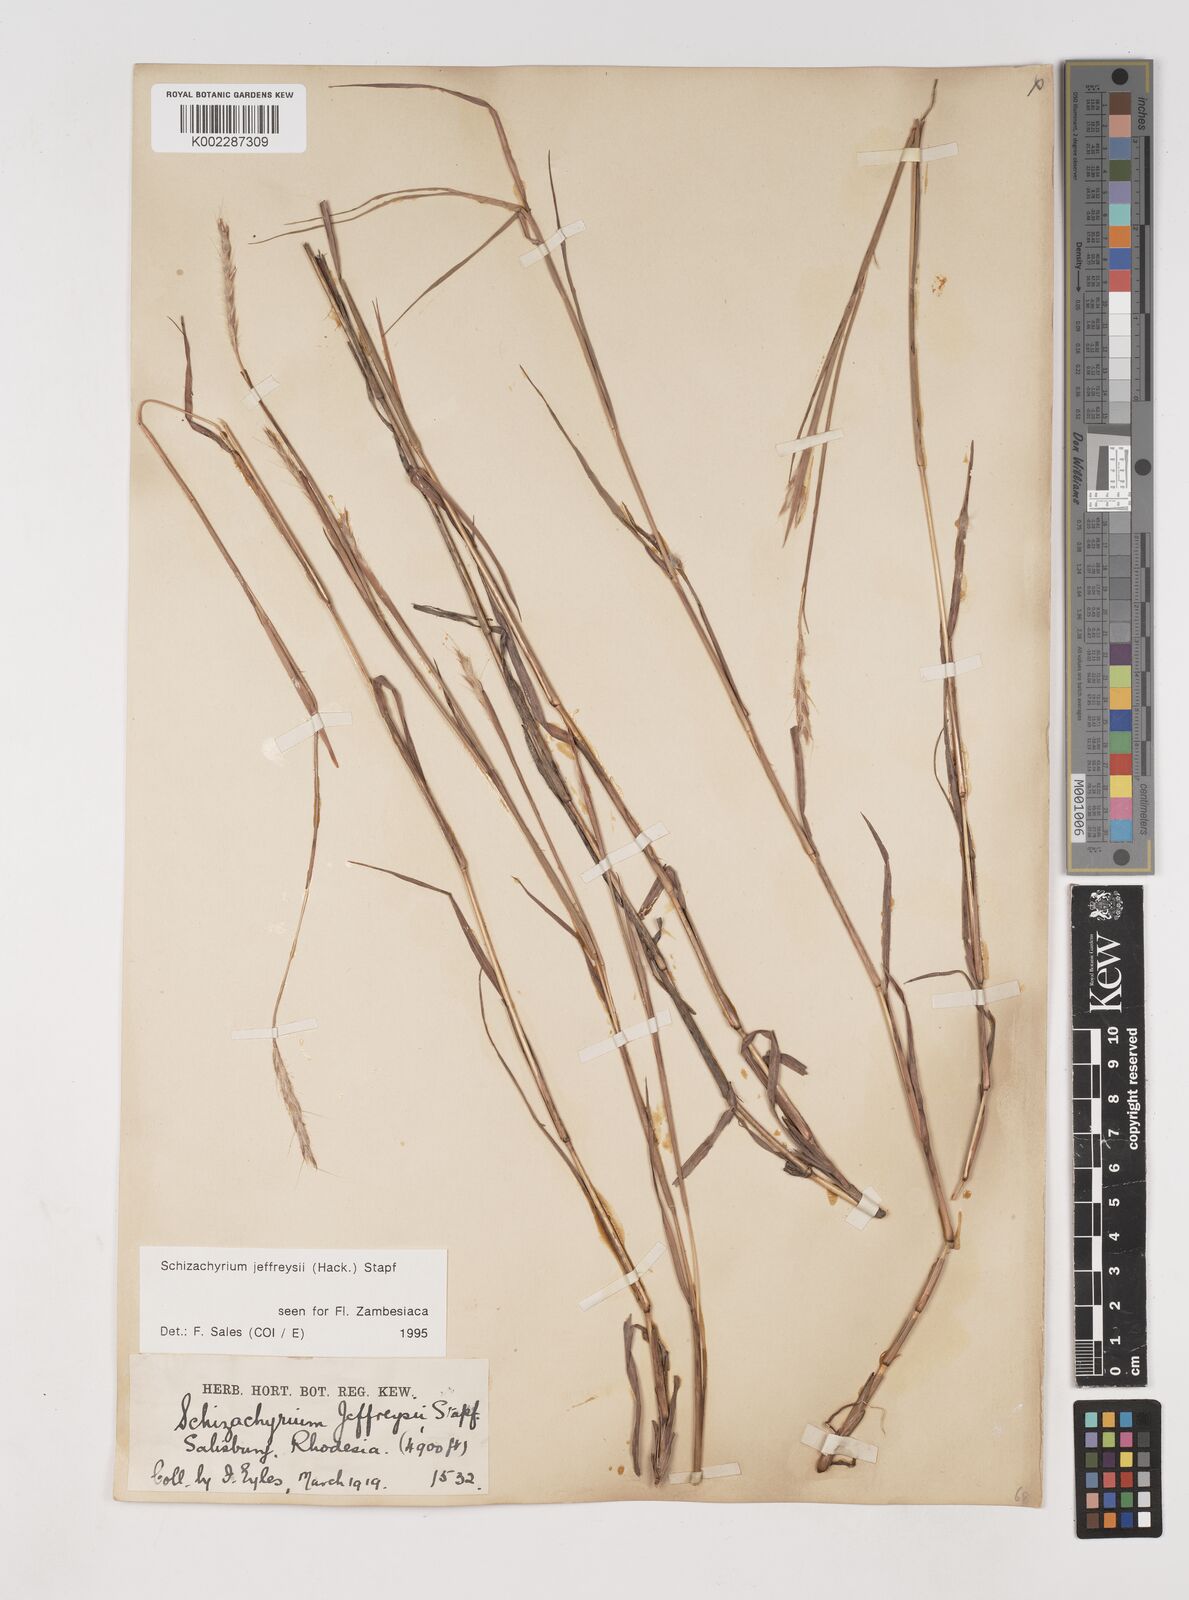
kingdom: Plantae
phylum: Tracheophyta
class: Liliopsida
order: Poales
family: Poaceae
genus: Schizachyrium
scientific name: Schizachyrium jeffreysii
